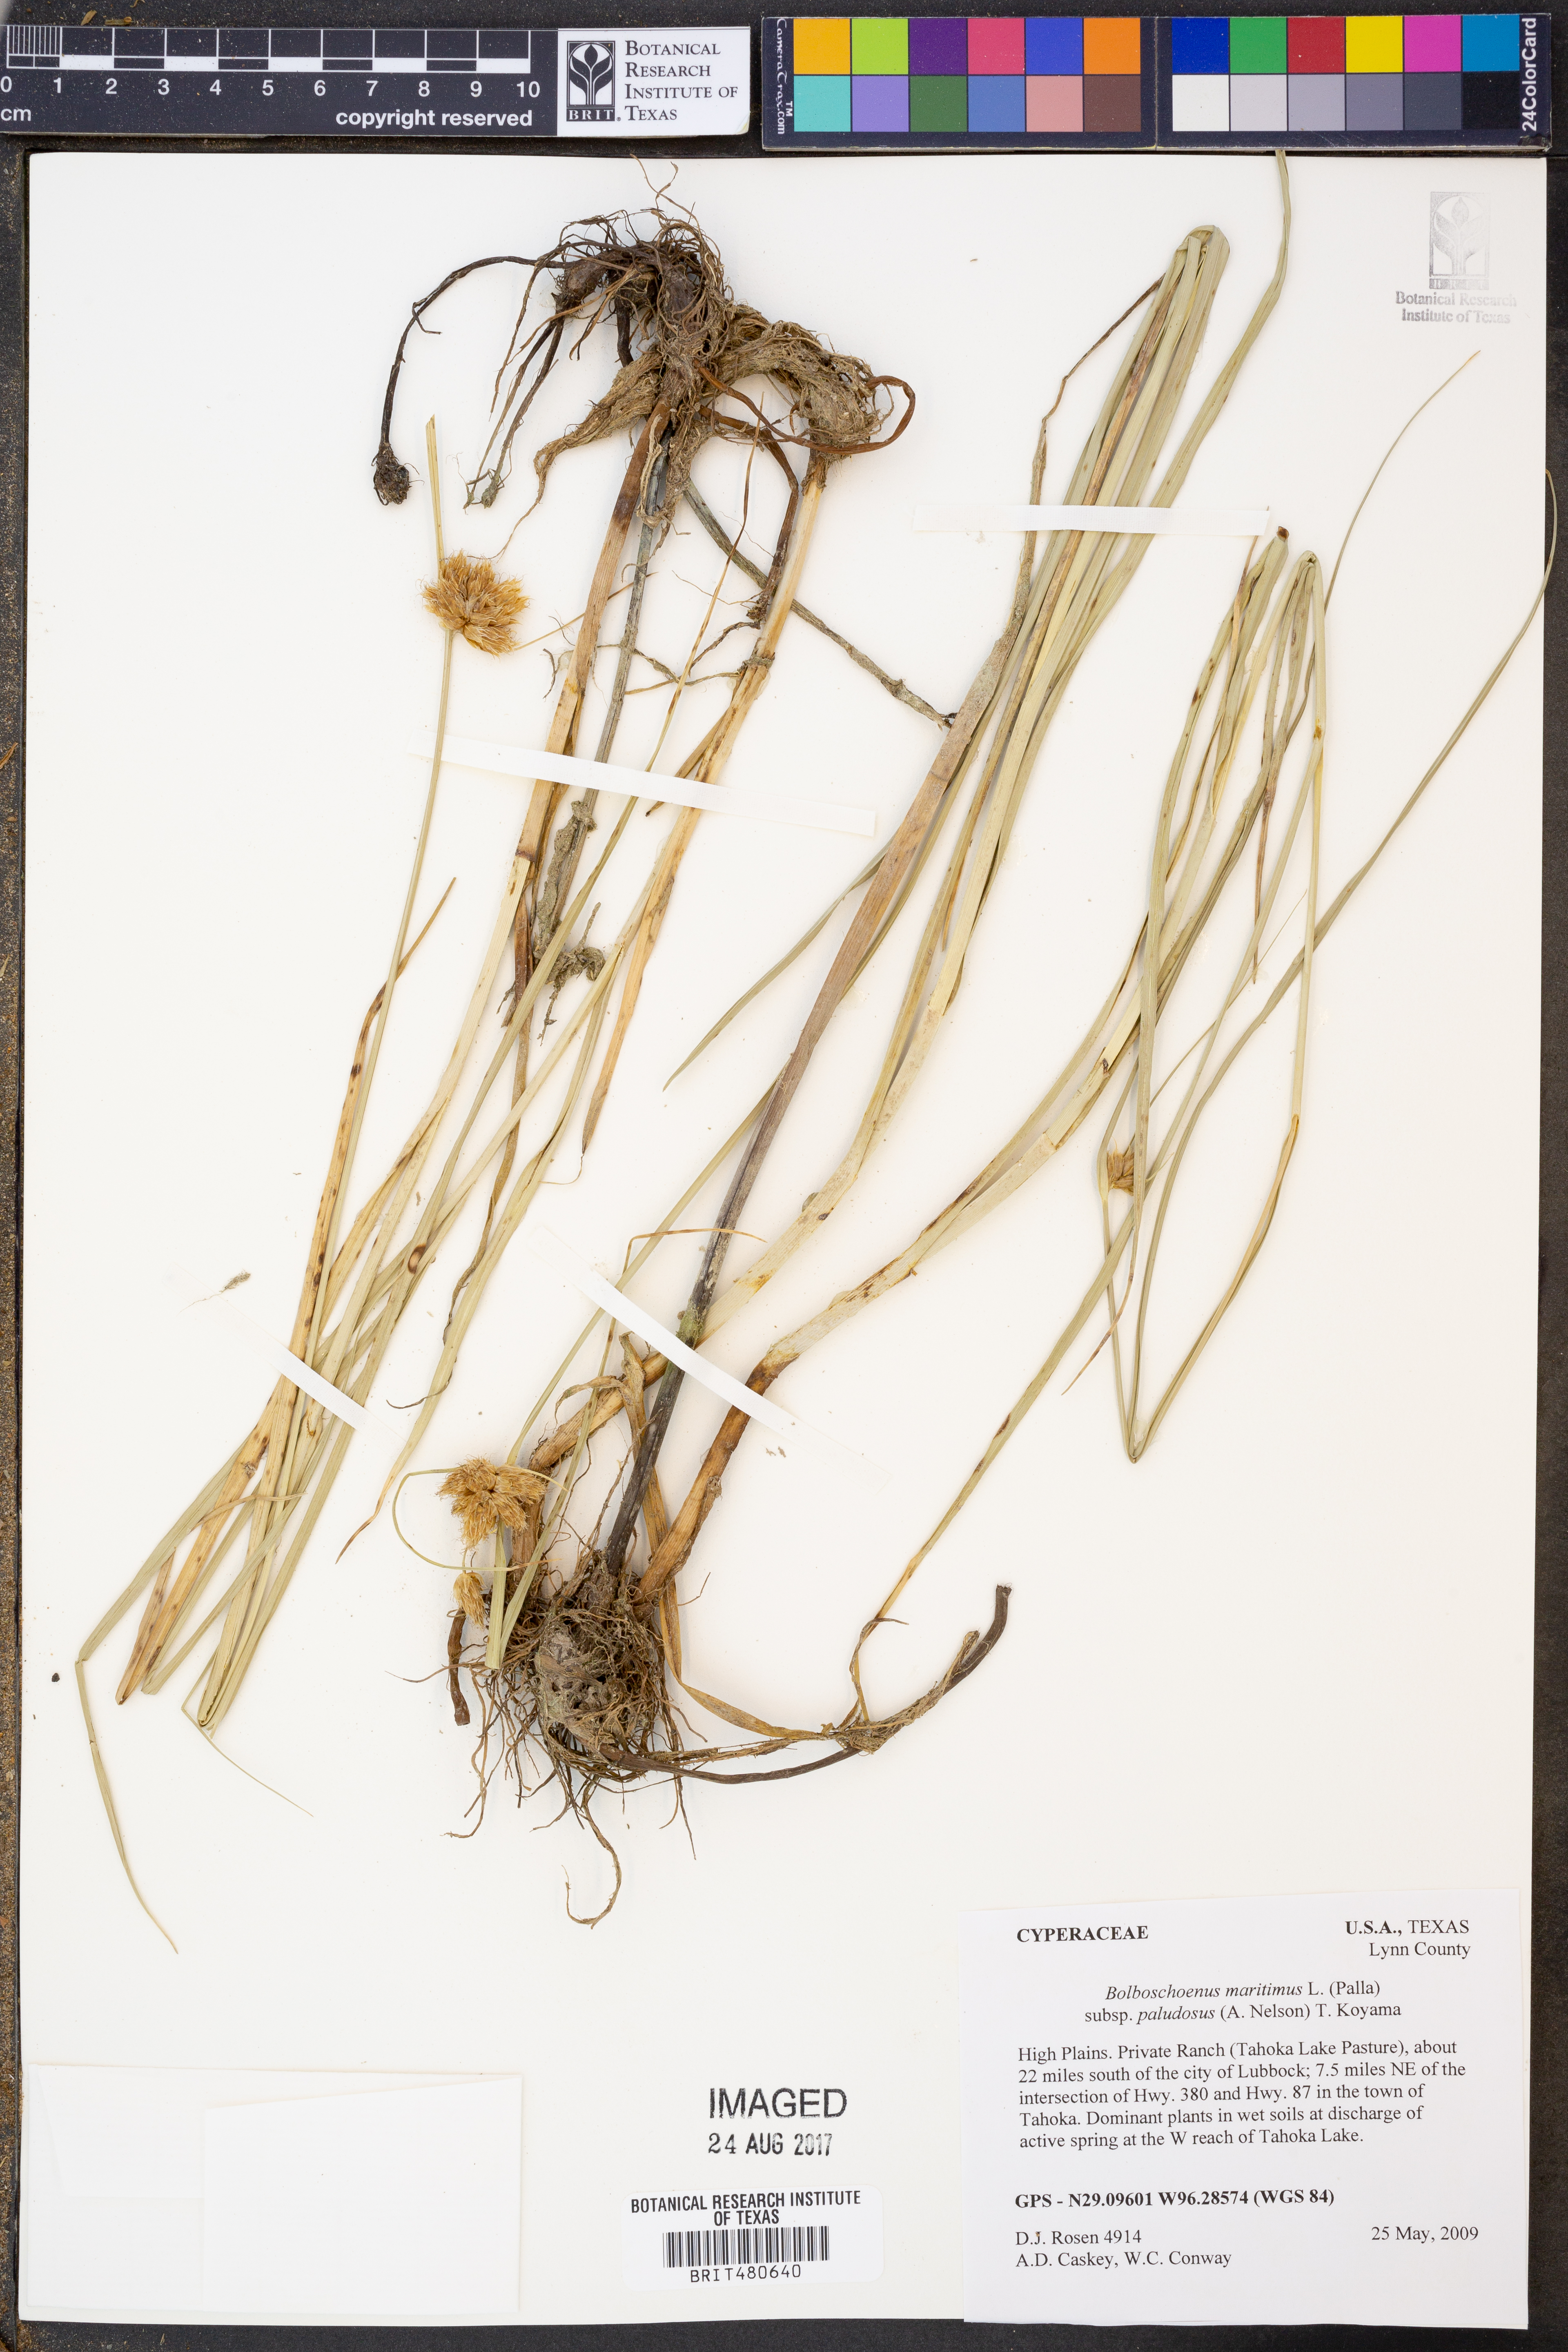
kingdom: Plantae
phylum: Tracheophyta
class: Liliopsida
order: Poales
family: Cyperaceae
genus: Bolboschoenus
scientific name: Bolboschoenus maritimus
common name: Sea club-rush
